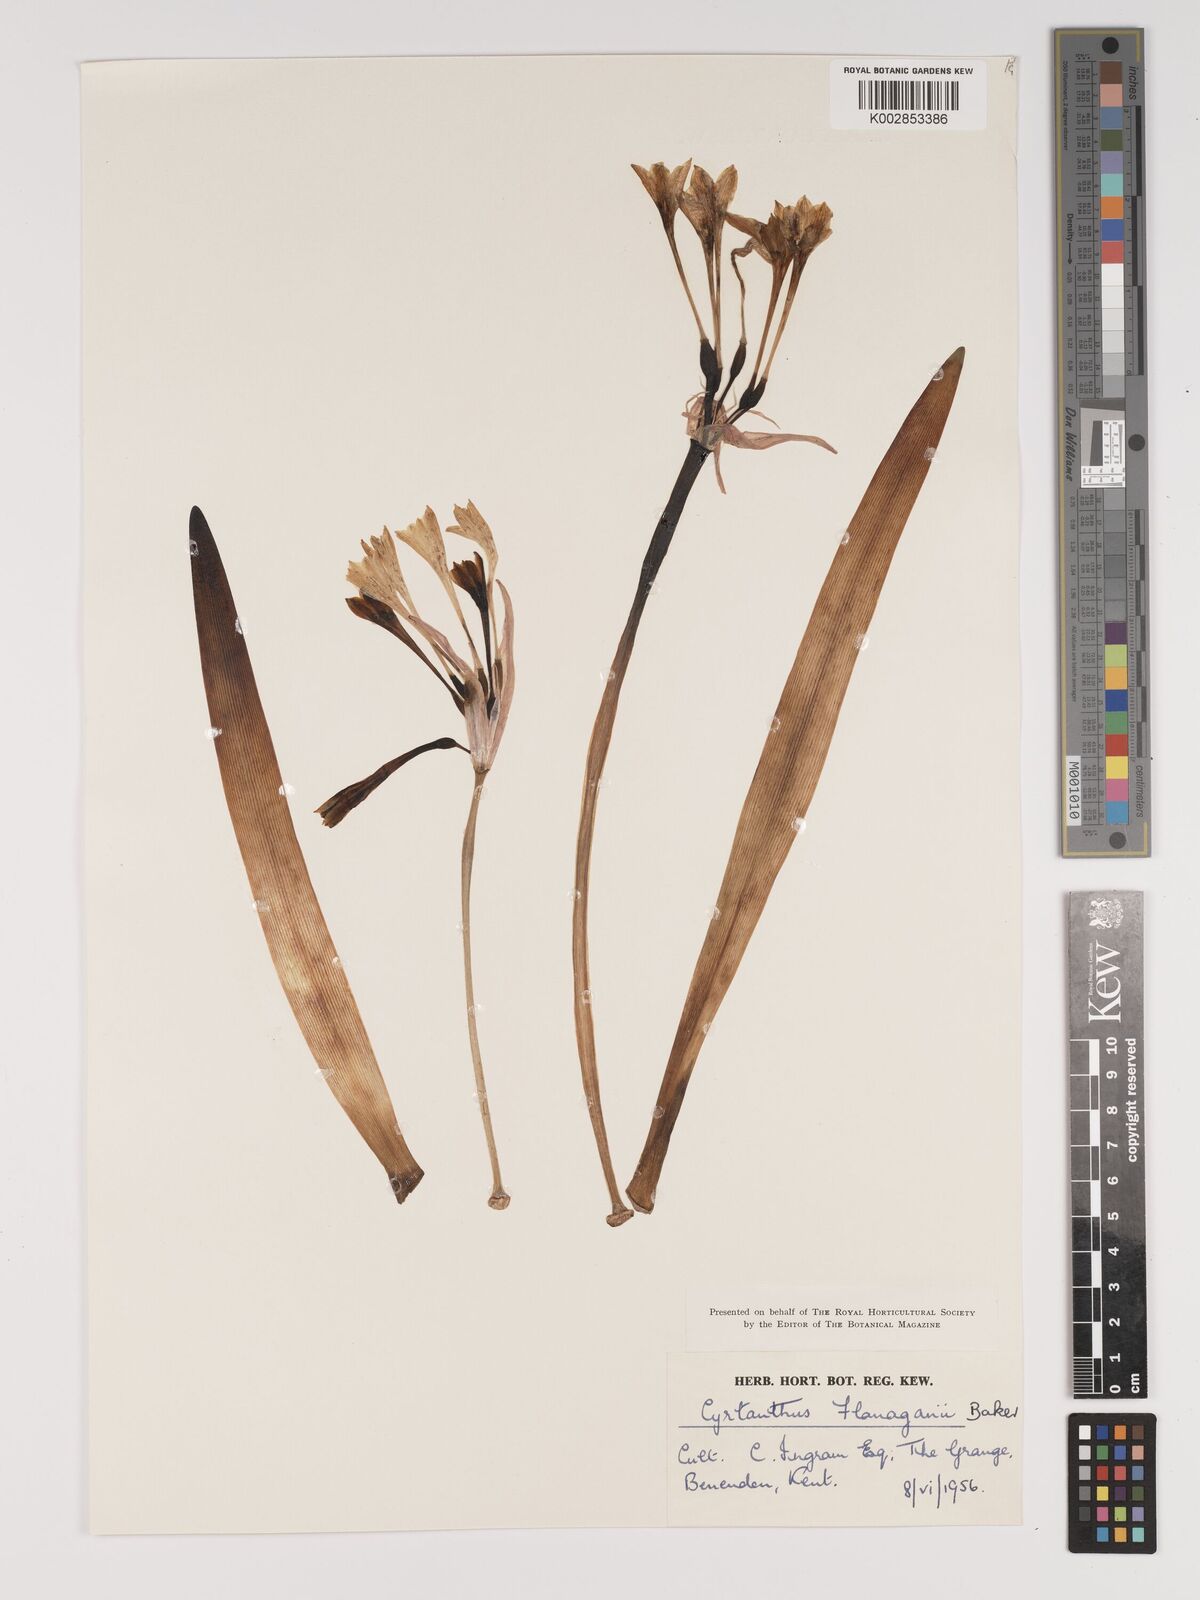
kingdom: Plantae
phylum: Tracheophyta
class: Liliopsida
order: Asparagales
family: Amaryllidaceae
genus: Cyrtanthus
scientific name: Cyrtanthus flanaganii
